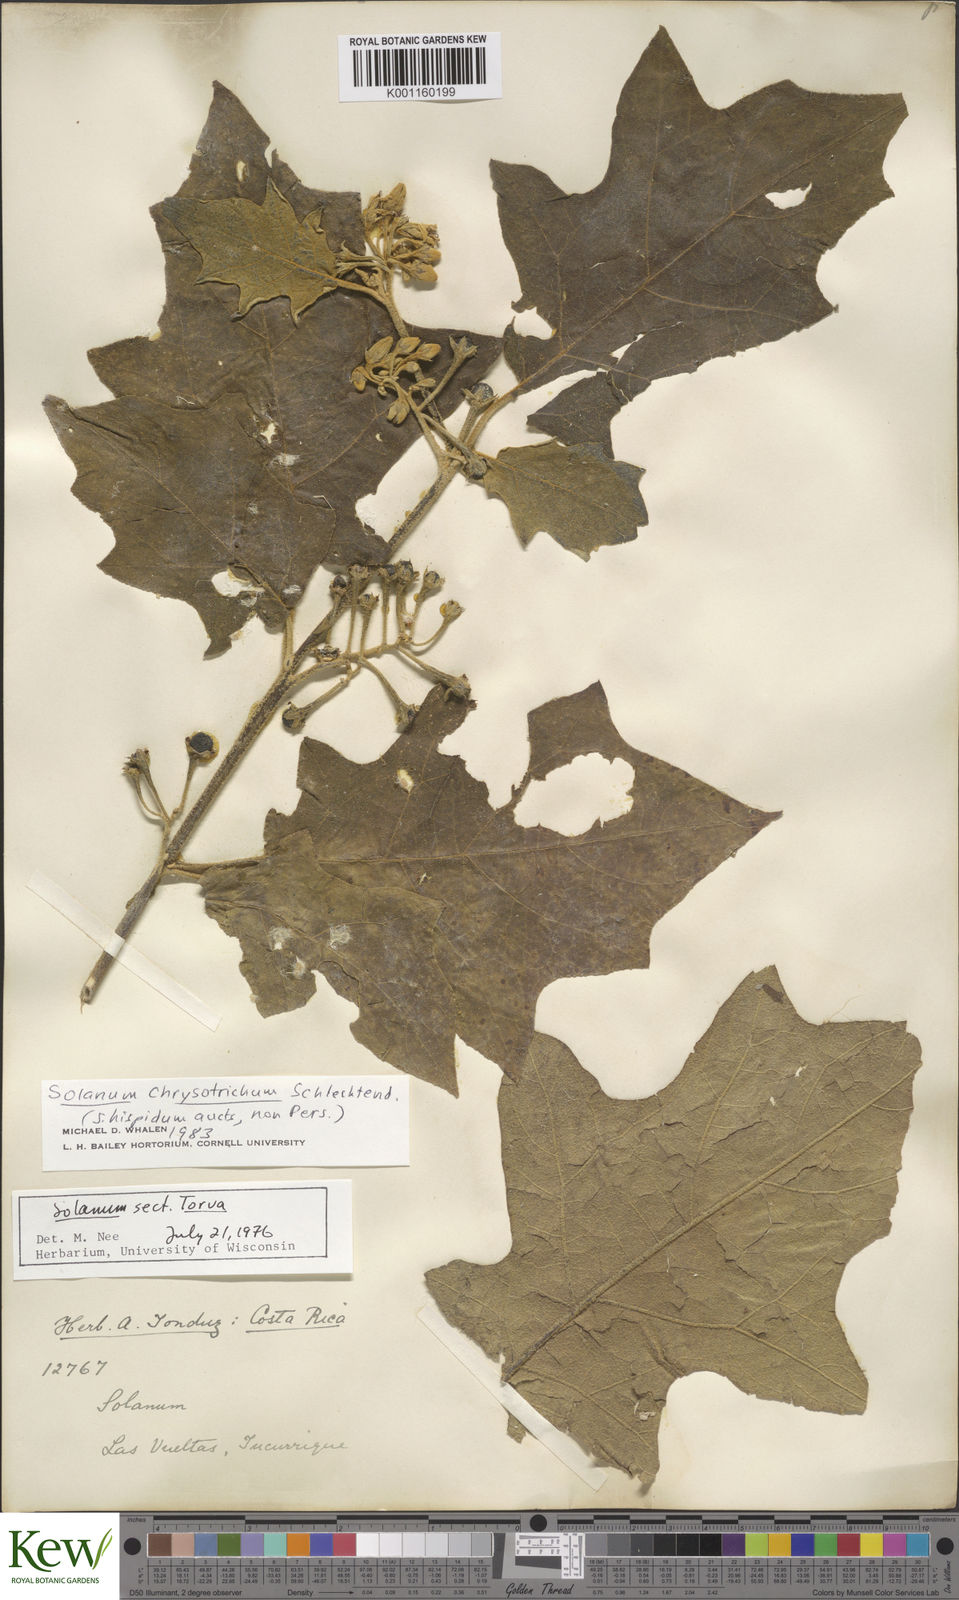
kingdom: Plantae
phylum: Tracheophyta
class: Magnoliopsida
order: Solanales
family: Solanaceae
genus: Solanum
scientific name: Solanum chrysotrichum
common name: Nightshade
